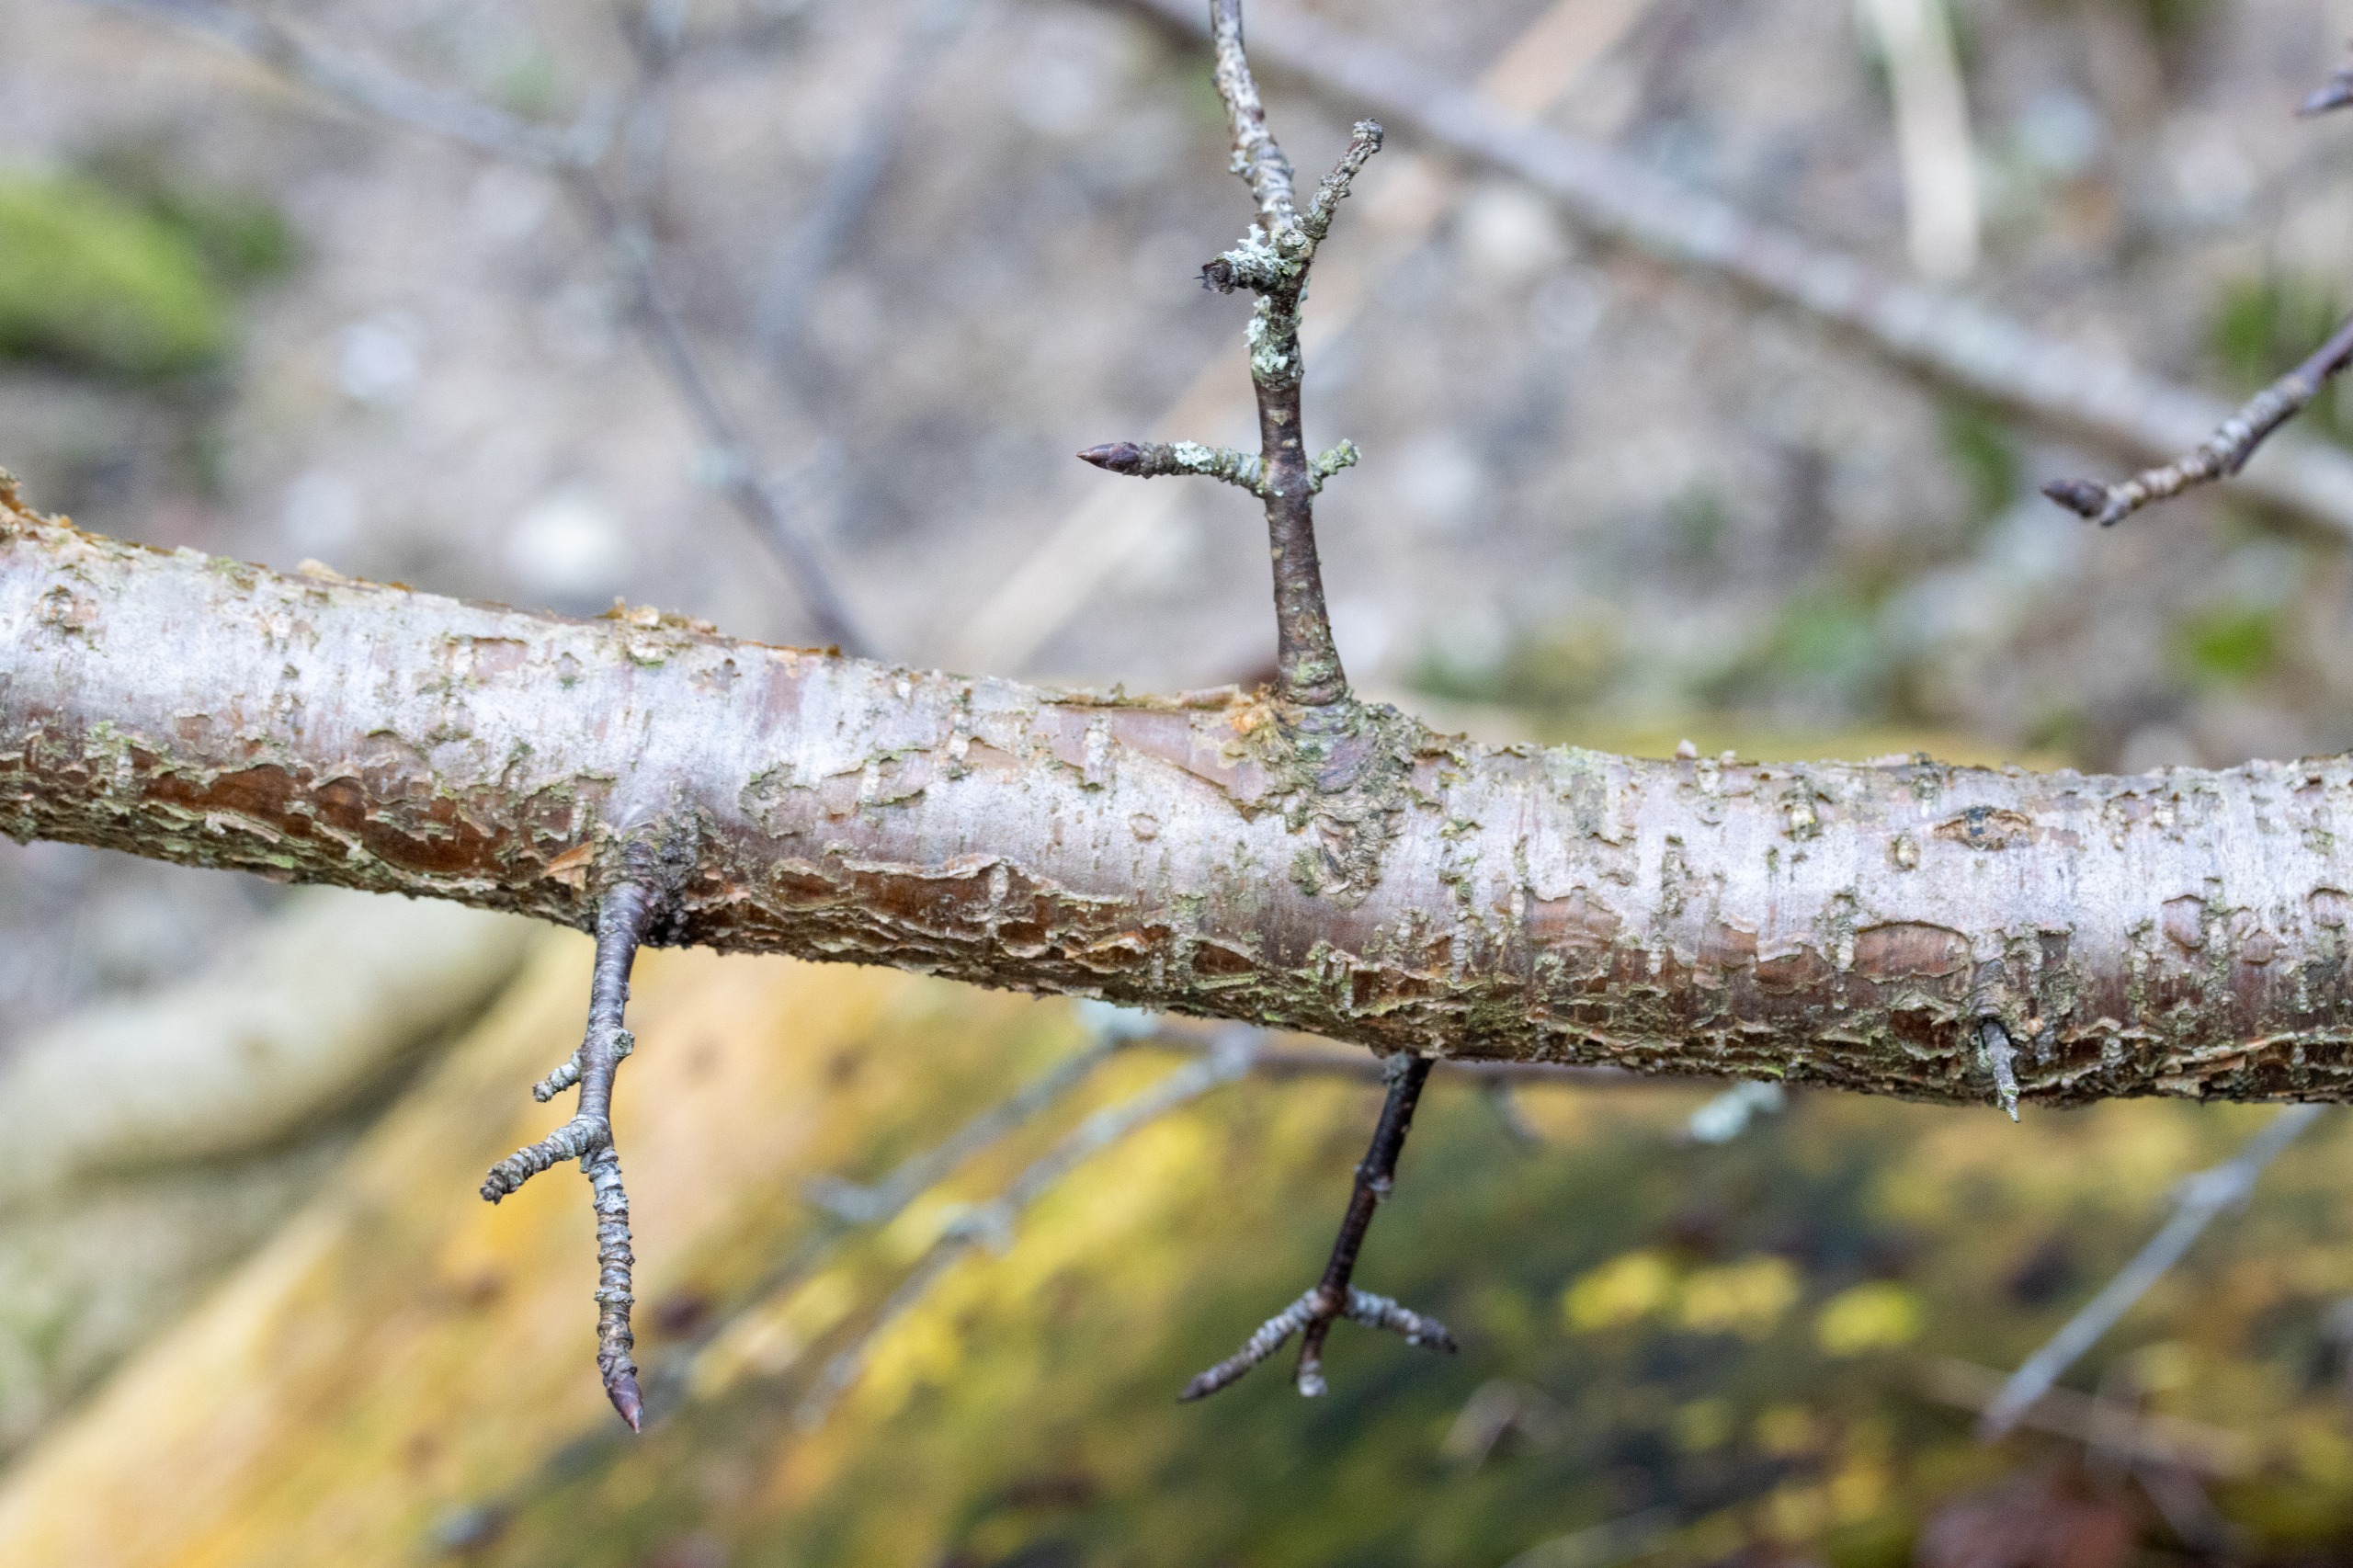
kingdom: Plantae
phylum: Tracheophyta
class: Magnoliopsida
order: Rosales
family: Rhamnaceae
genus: Rhamnus
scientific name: Rhamnus cathartica
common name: Vrietorn
